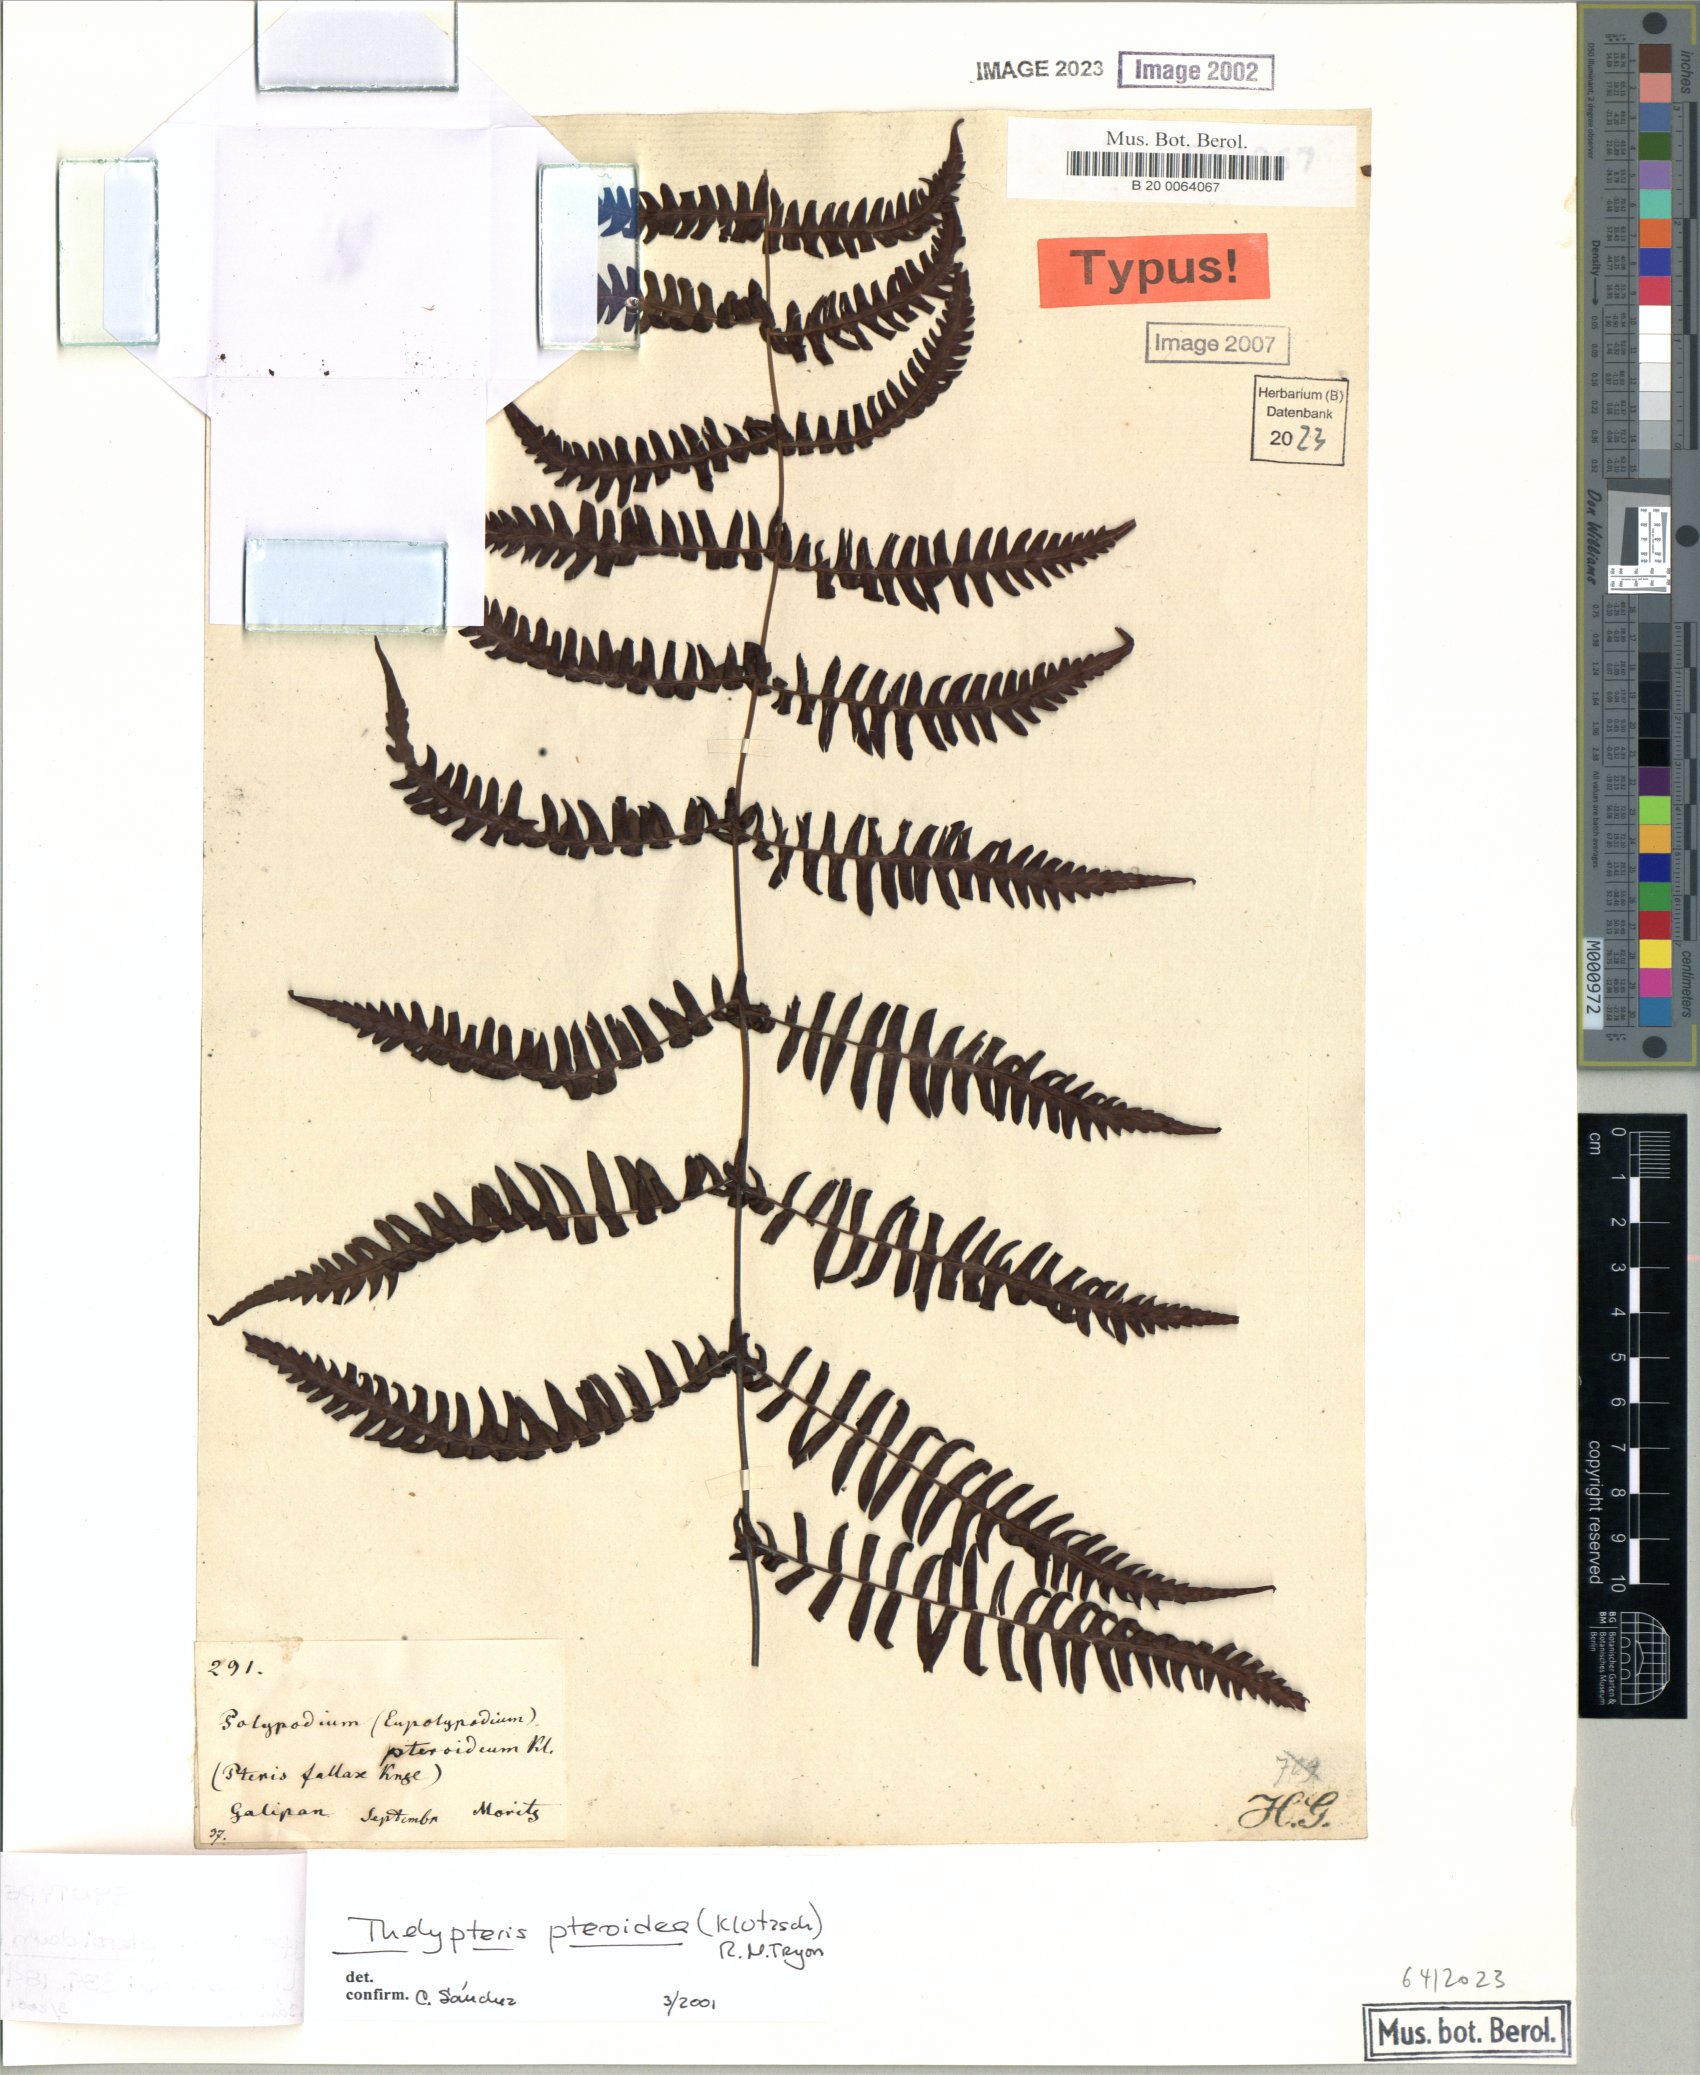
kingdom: Plantae
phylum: Tracheophyta
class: Polypodiopsida
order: Polypodiales
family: Thelypteridaceae
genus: Amauropelta
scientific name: Amauropelta pteroidea
